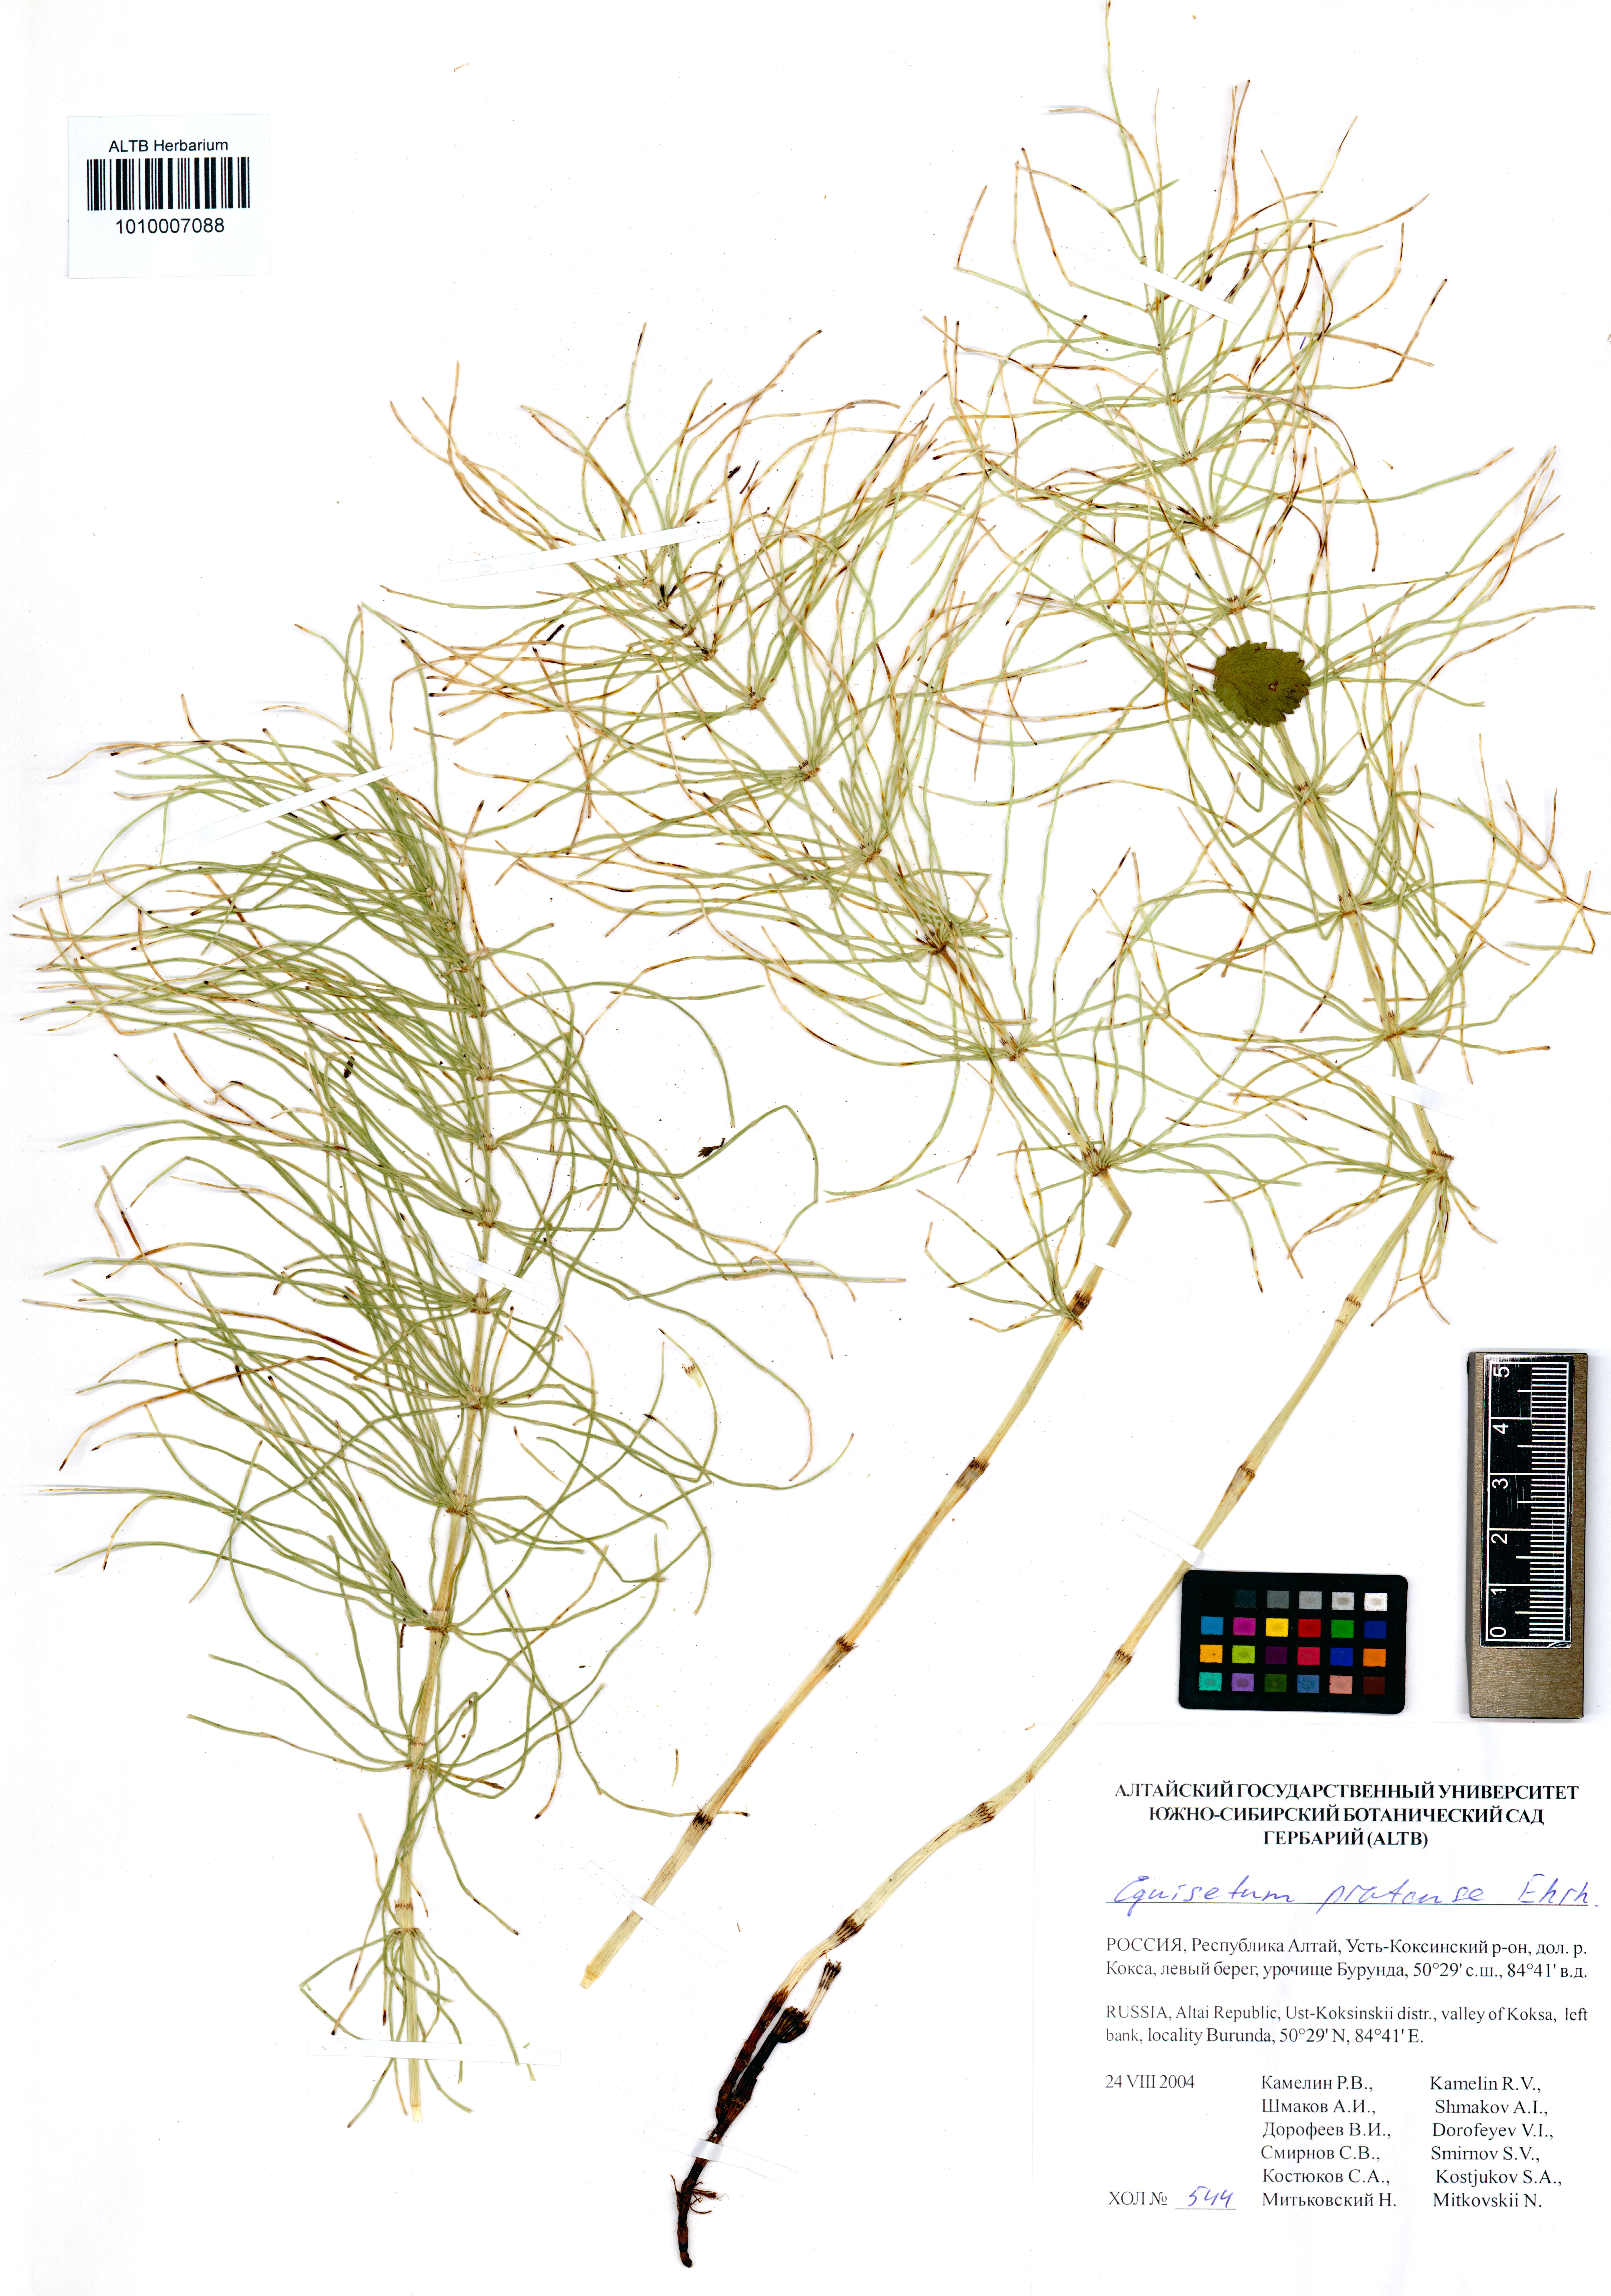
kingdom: Plantae
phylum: Tracheophyta
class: Polypodiopsida
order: Equisetales
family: Equisetaceae
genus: Equisetum
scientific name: Equisetum pratense
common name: Meadow horsetail
